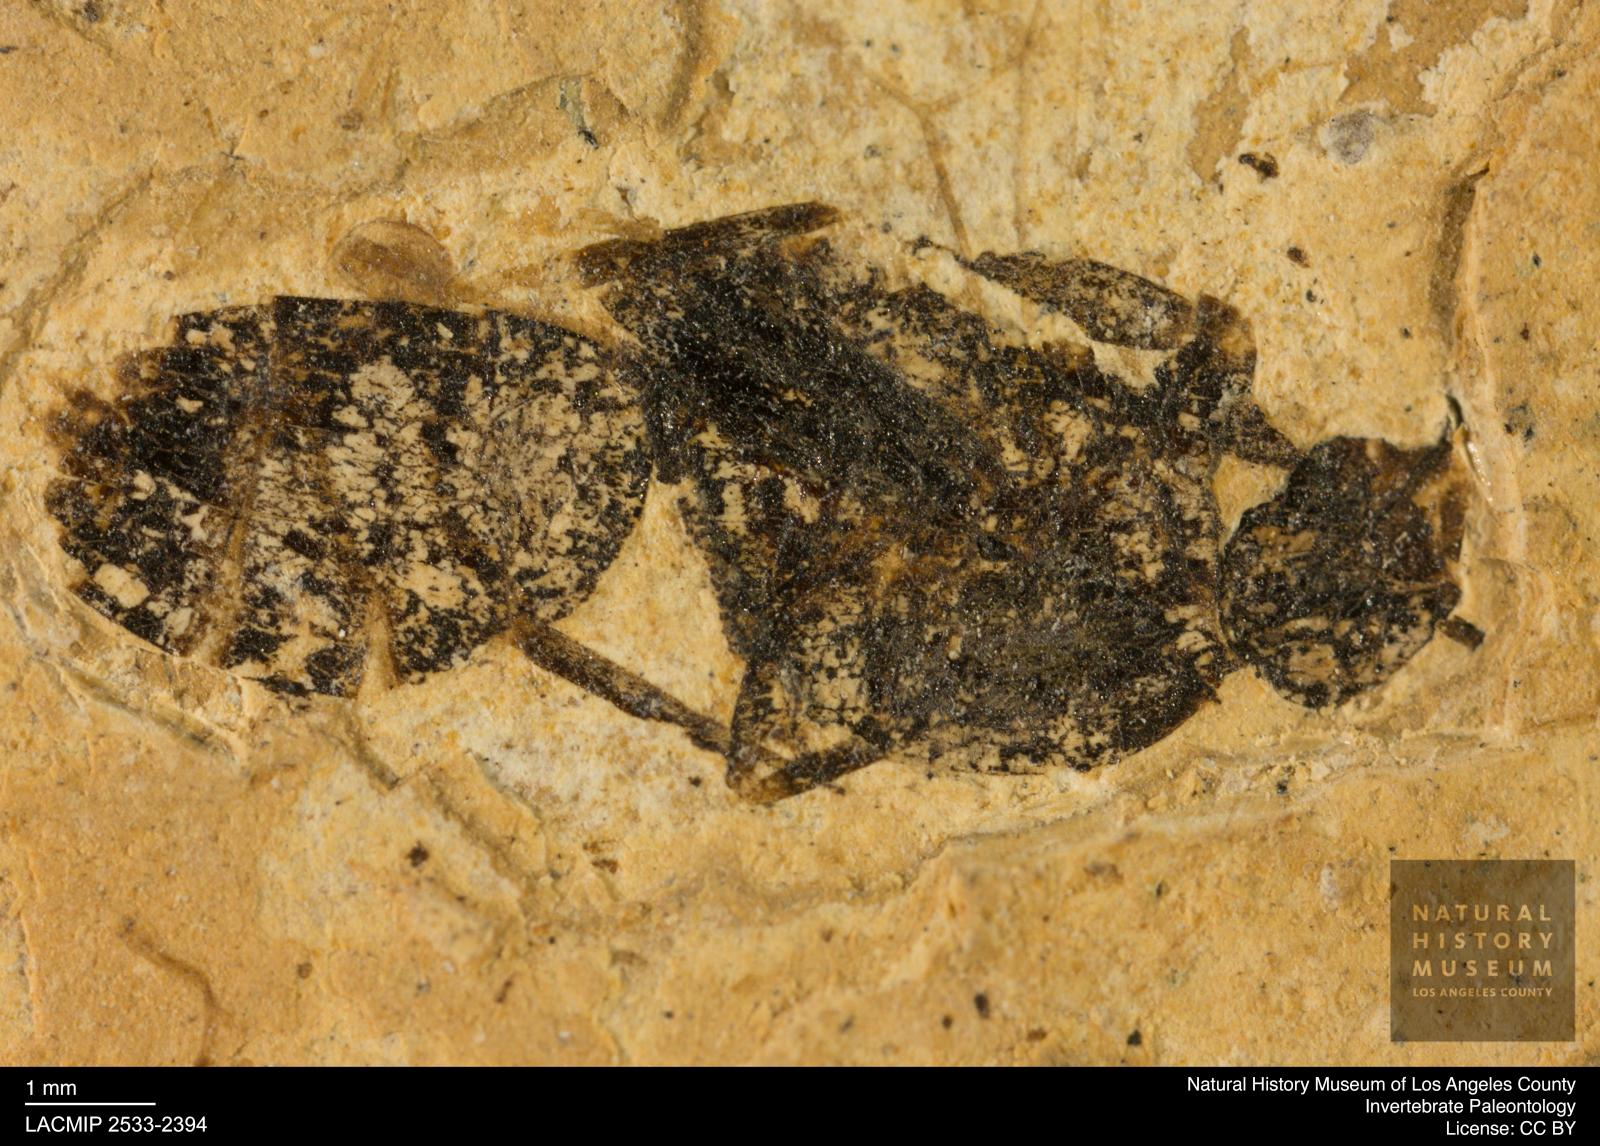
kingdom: Animalia
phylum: Arthropoda
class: Insecta
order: Hymenoptera
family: Formicidae
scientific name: Formicidae
